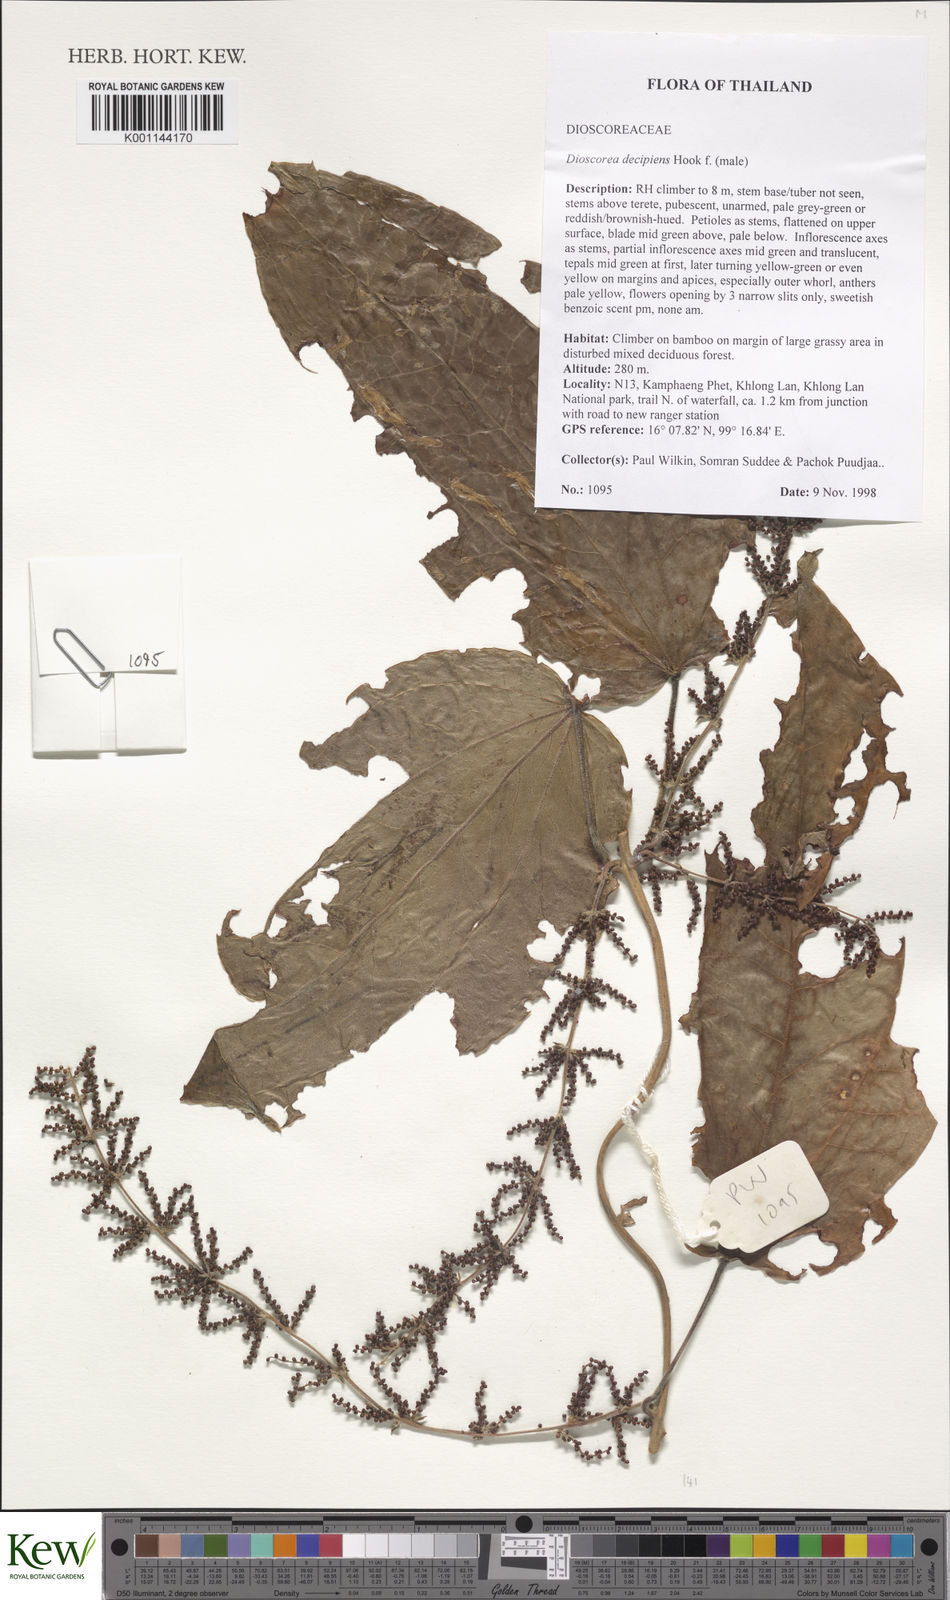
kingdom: Plantae
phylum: Tracheophyta
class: Liliopsida
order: Dioscoreales
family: Dioscoreaceae
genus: Dioscorea
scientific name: Dioscorea decipiens
